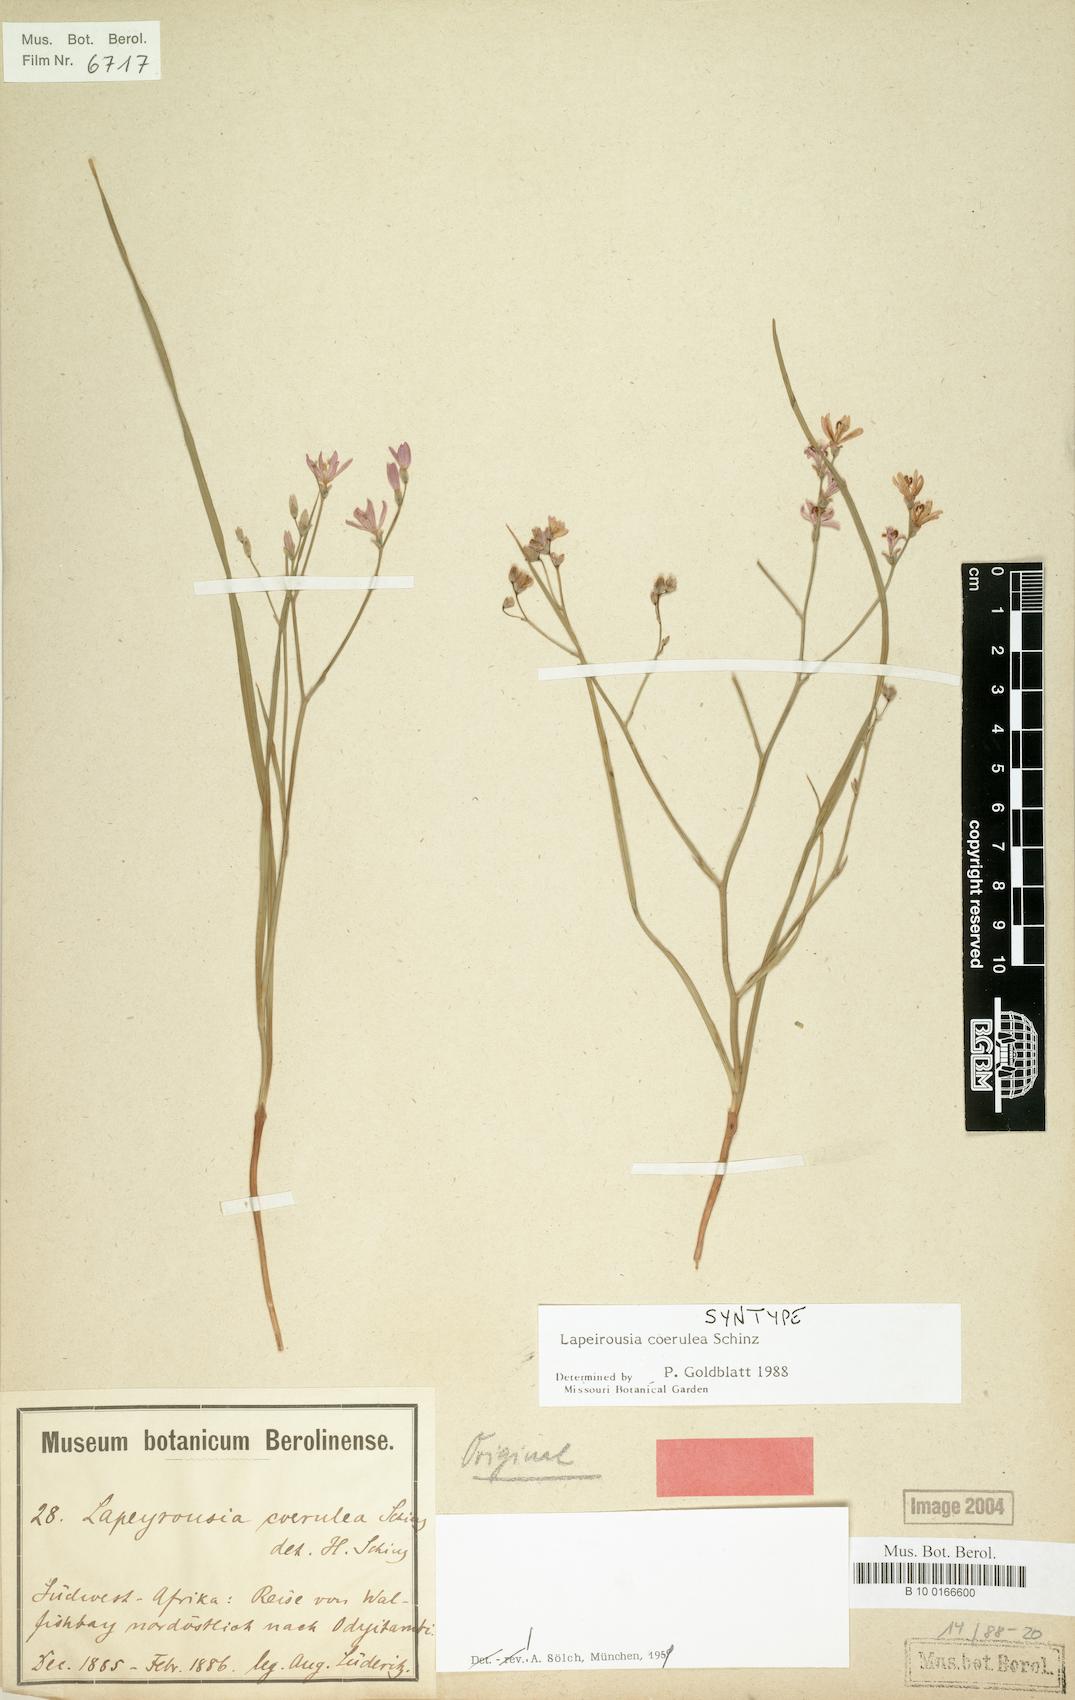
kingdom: Plantae
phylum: Tracheophyta
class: Liliopsida
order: Asparagales
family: Iridaceae
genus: Afrosolen
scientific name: Afrosolen coeruleus
